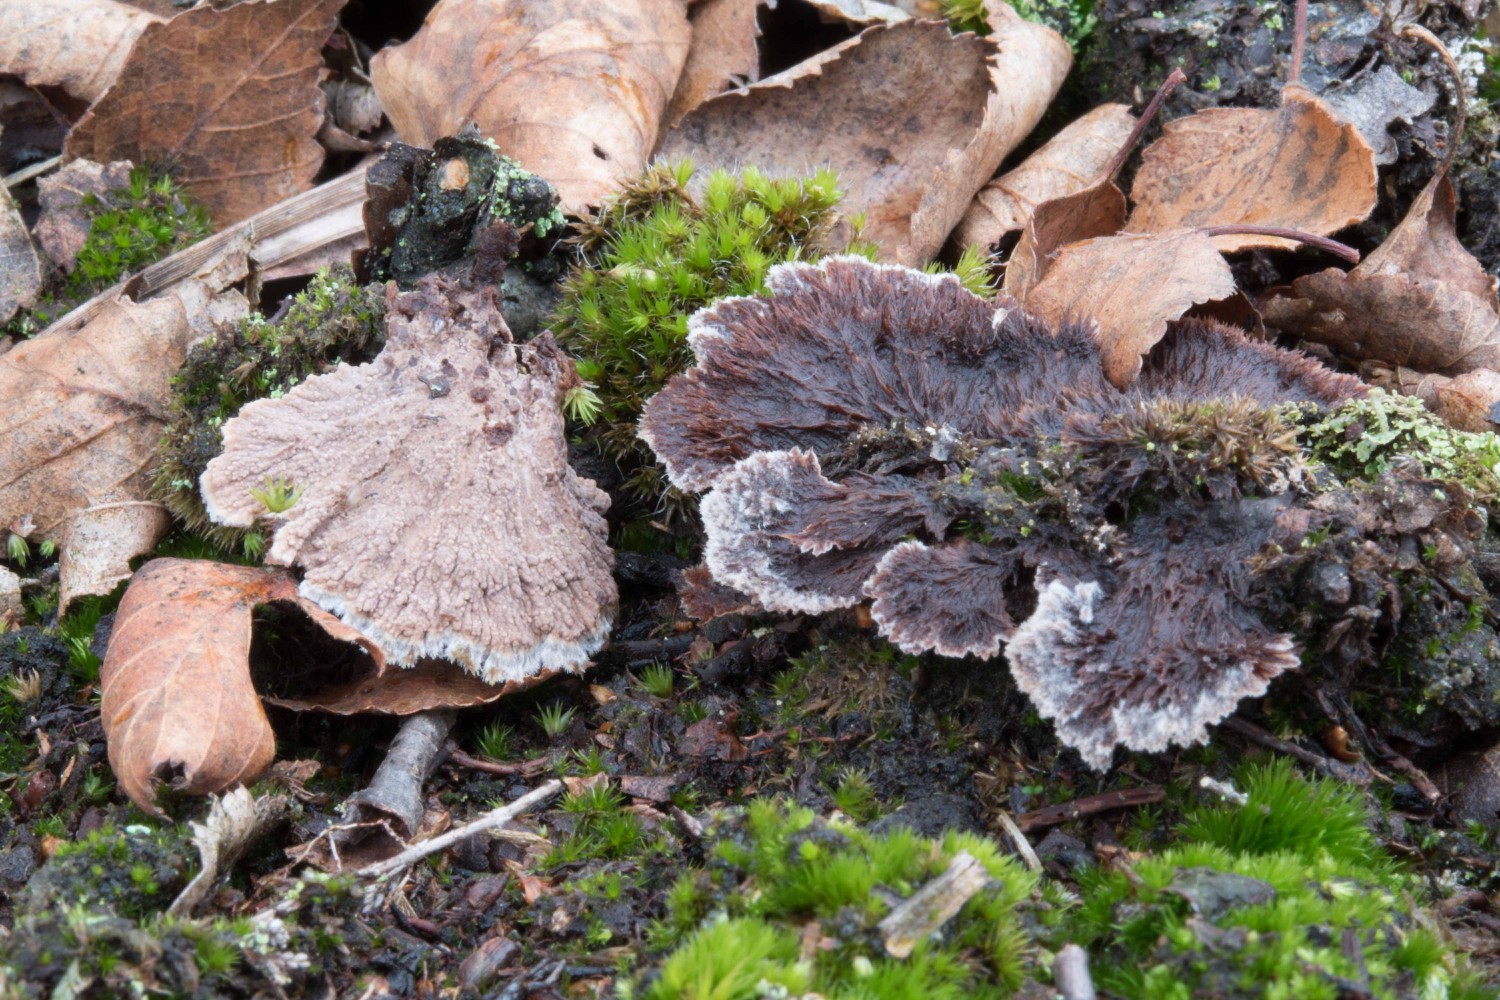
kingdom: Fungi
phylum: Basidiomycota
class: Agaricomycetes
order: Thelephorales
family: Thelephoraceae
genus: Thelephora
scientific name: Thelephora terrestris
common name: fliget frynsesvamp
